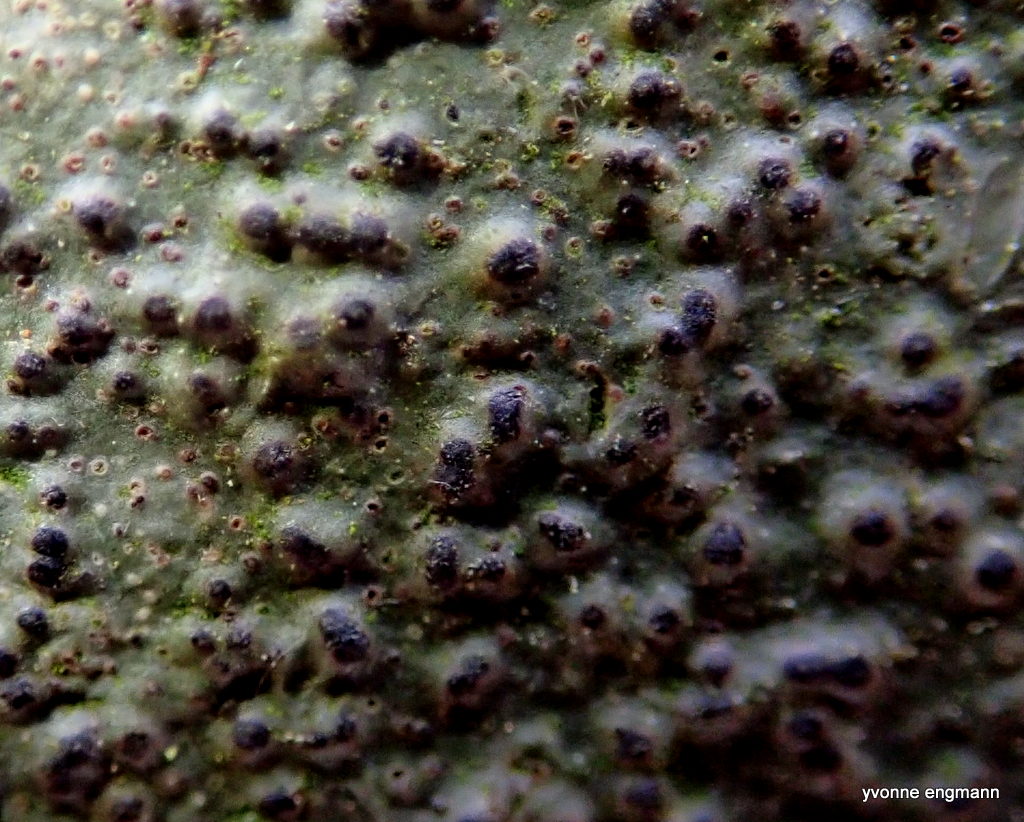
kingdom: Fungi
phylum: Ascomycota
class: Eurotiomycetes
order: Pyrenulales
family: Pyrenulaceae
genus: Pyrenula
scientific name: Pyrenula nitida
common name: glinsende kernelav
